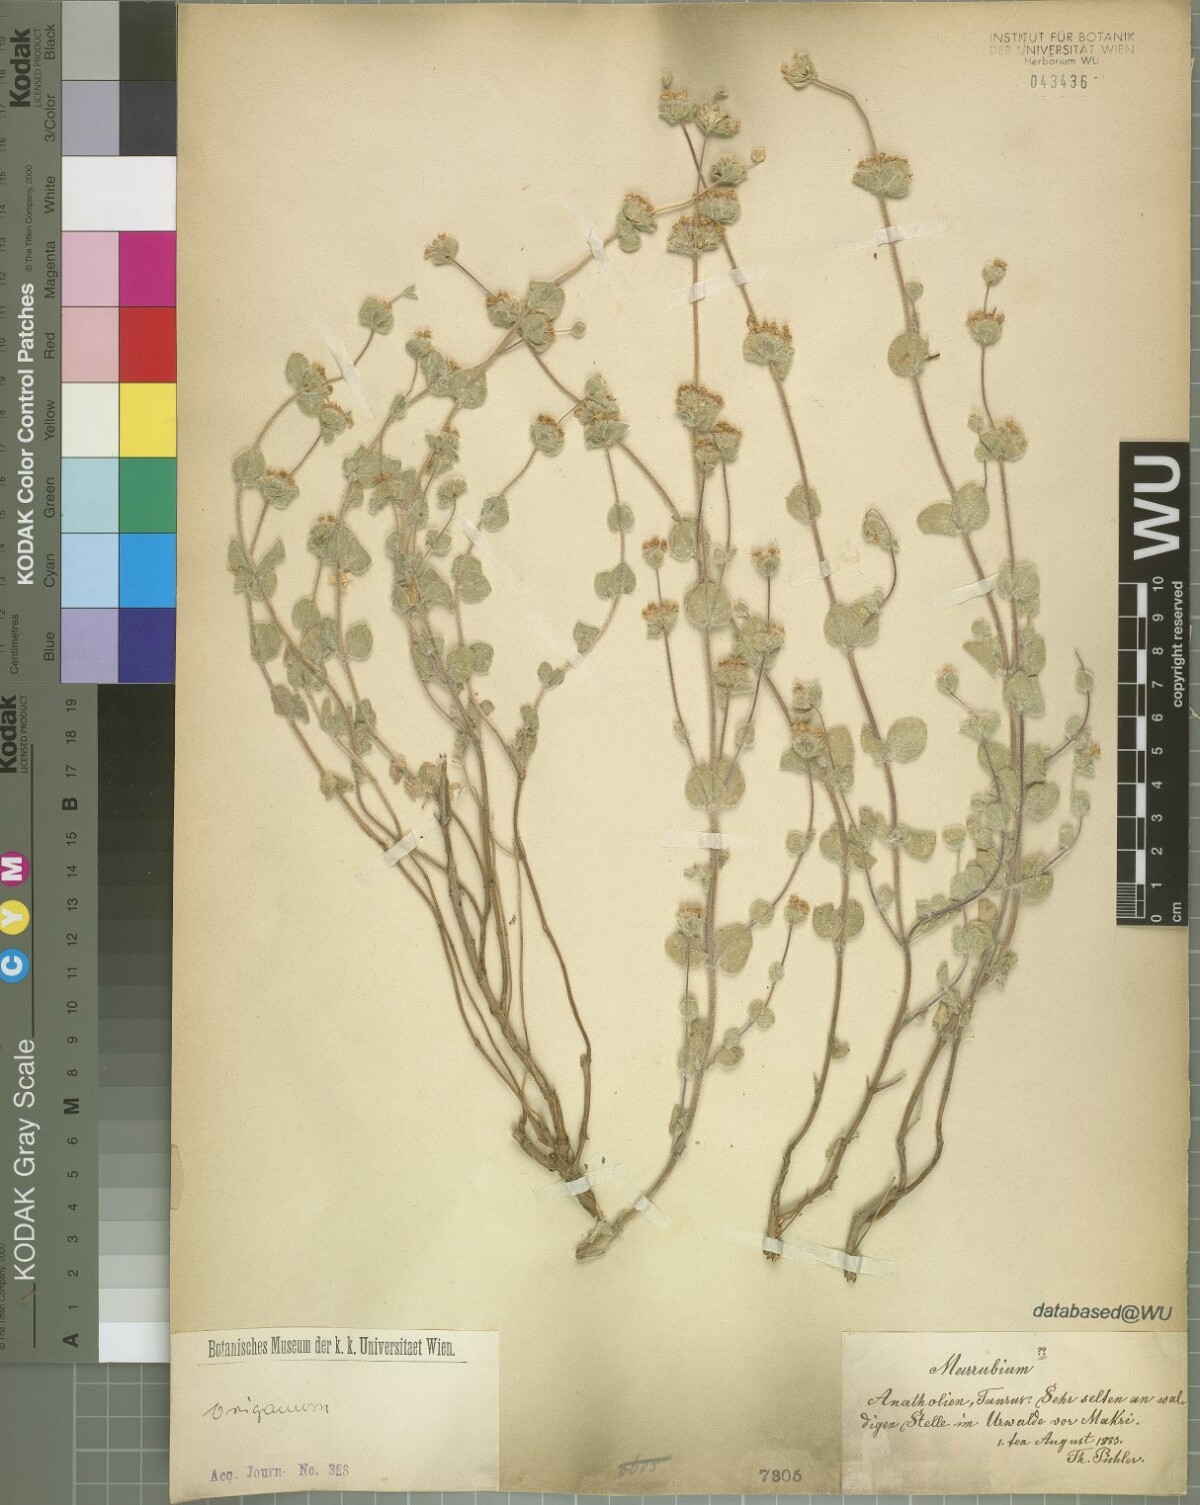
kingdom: Plantae
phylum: Tracheophyta
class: Magnoliopsida
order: Lamiales
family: Lamiaceae
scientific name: Lamiaceae
